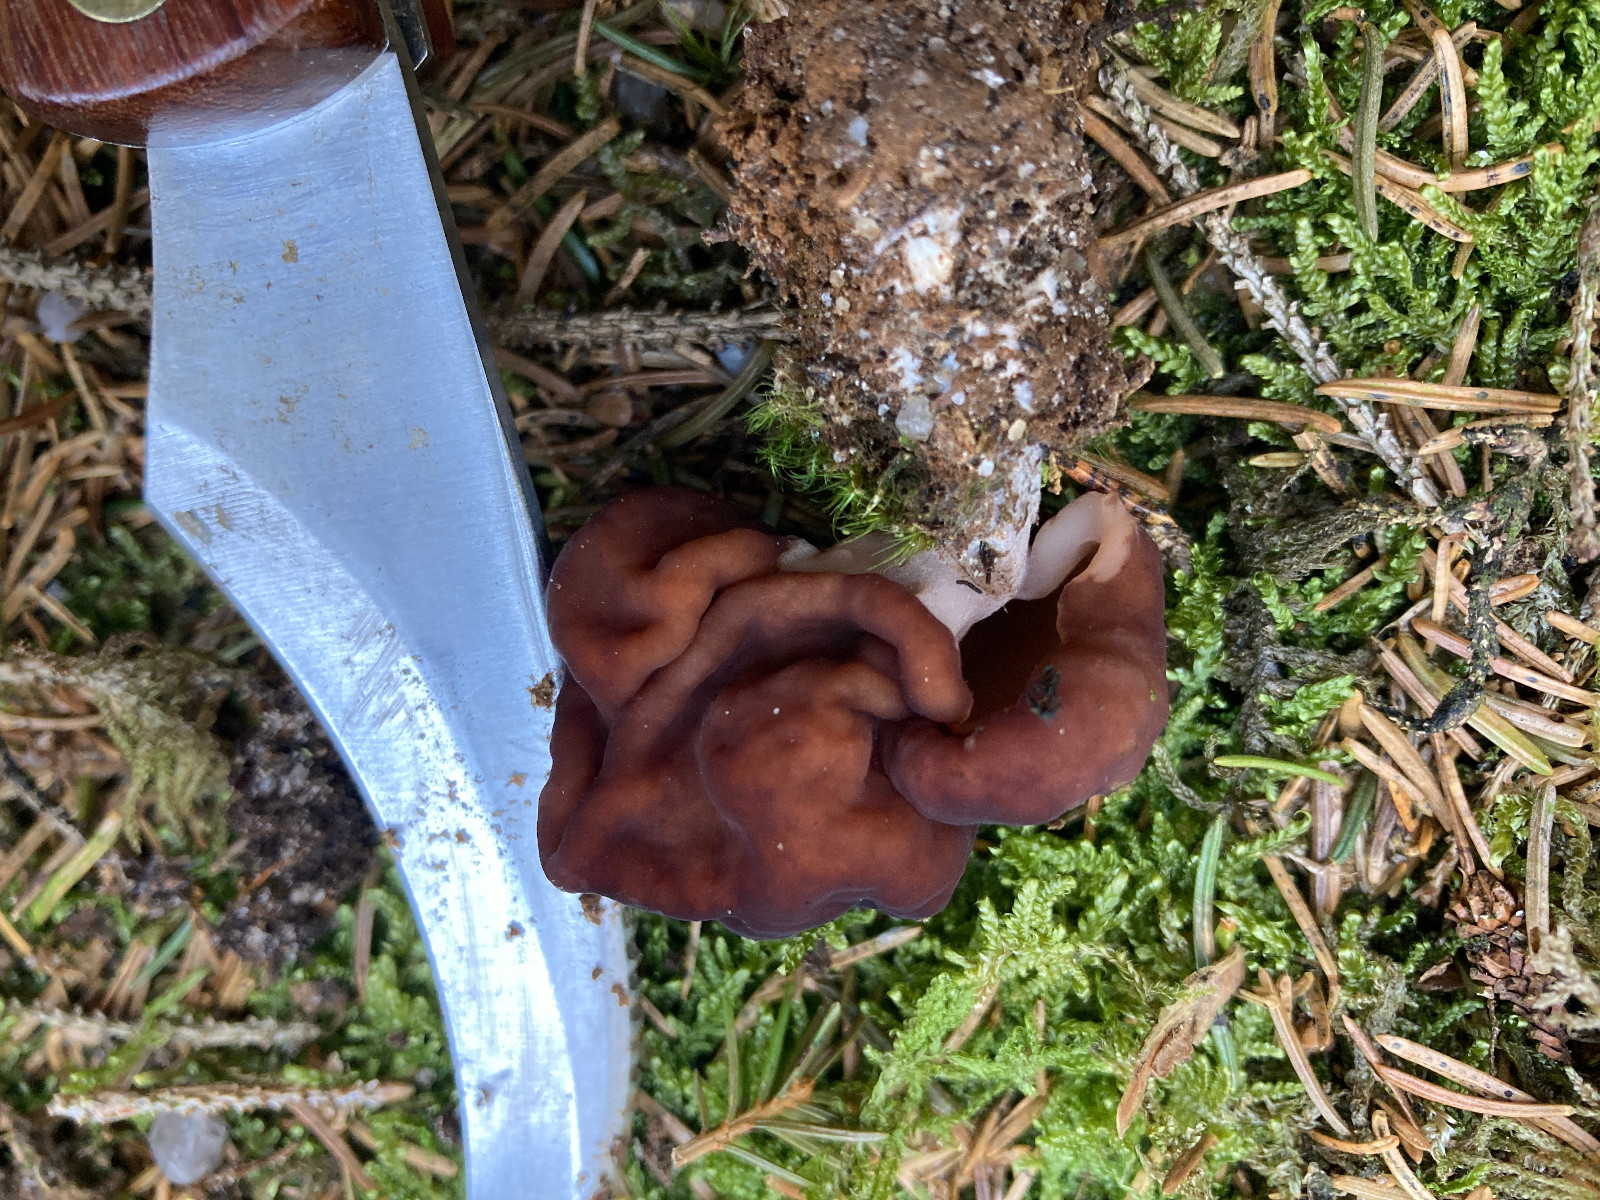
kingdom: Fungi
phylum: Ascomycota
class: Pezizomycetes
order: Pezizales
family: Discinaceae
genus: Gyromitra
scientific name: Gyromitra esculenta
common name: ægte stenmorkel
